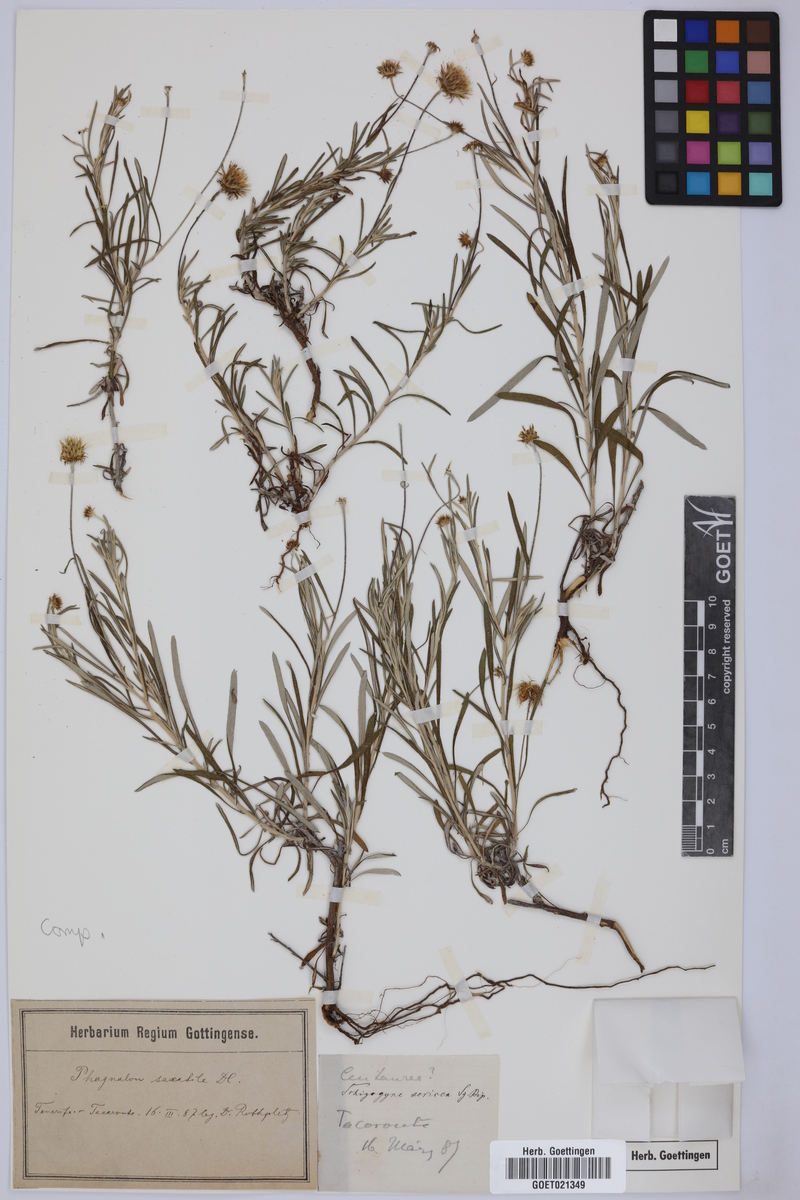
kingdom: Plantae
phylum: Tracheophyta
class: Magnoliopsida
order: Asterales
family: Asteraceae
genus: Phagnalon
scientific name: Phagnalon saxatile
